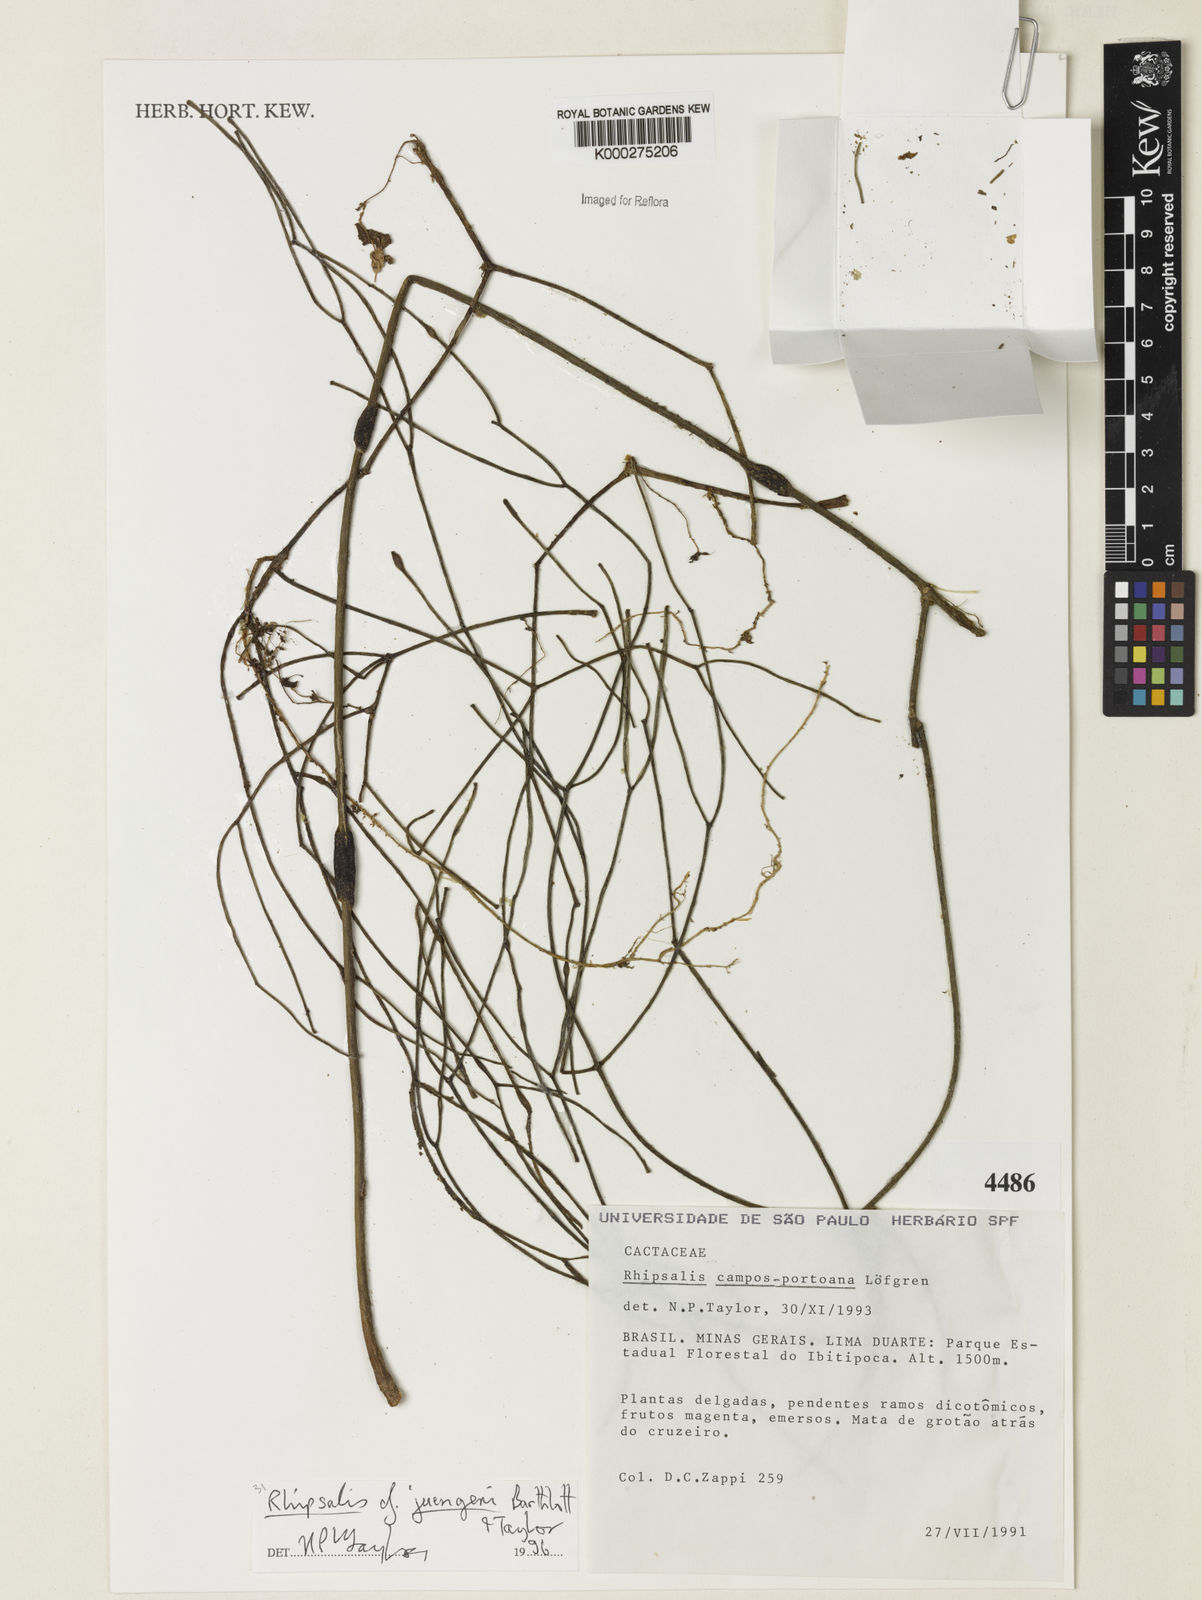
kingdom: Plantae
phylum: Tracheophyta
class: Magnoliopsida
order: Caryophyllales
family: Cactaceae
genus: Rhipsalis
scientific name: Rhipsalis juengeri
